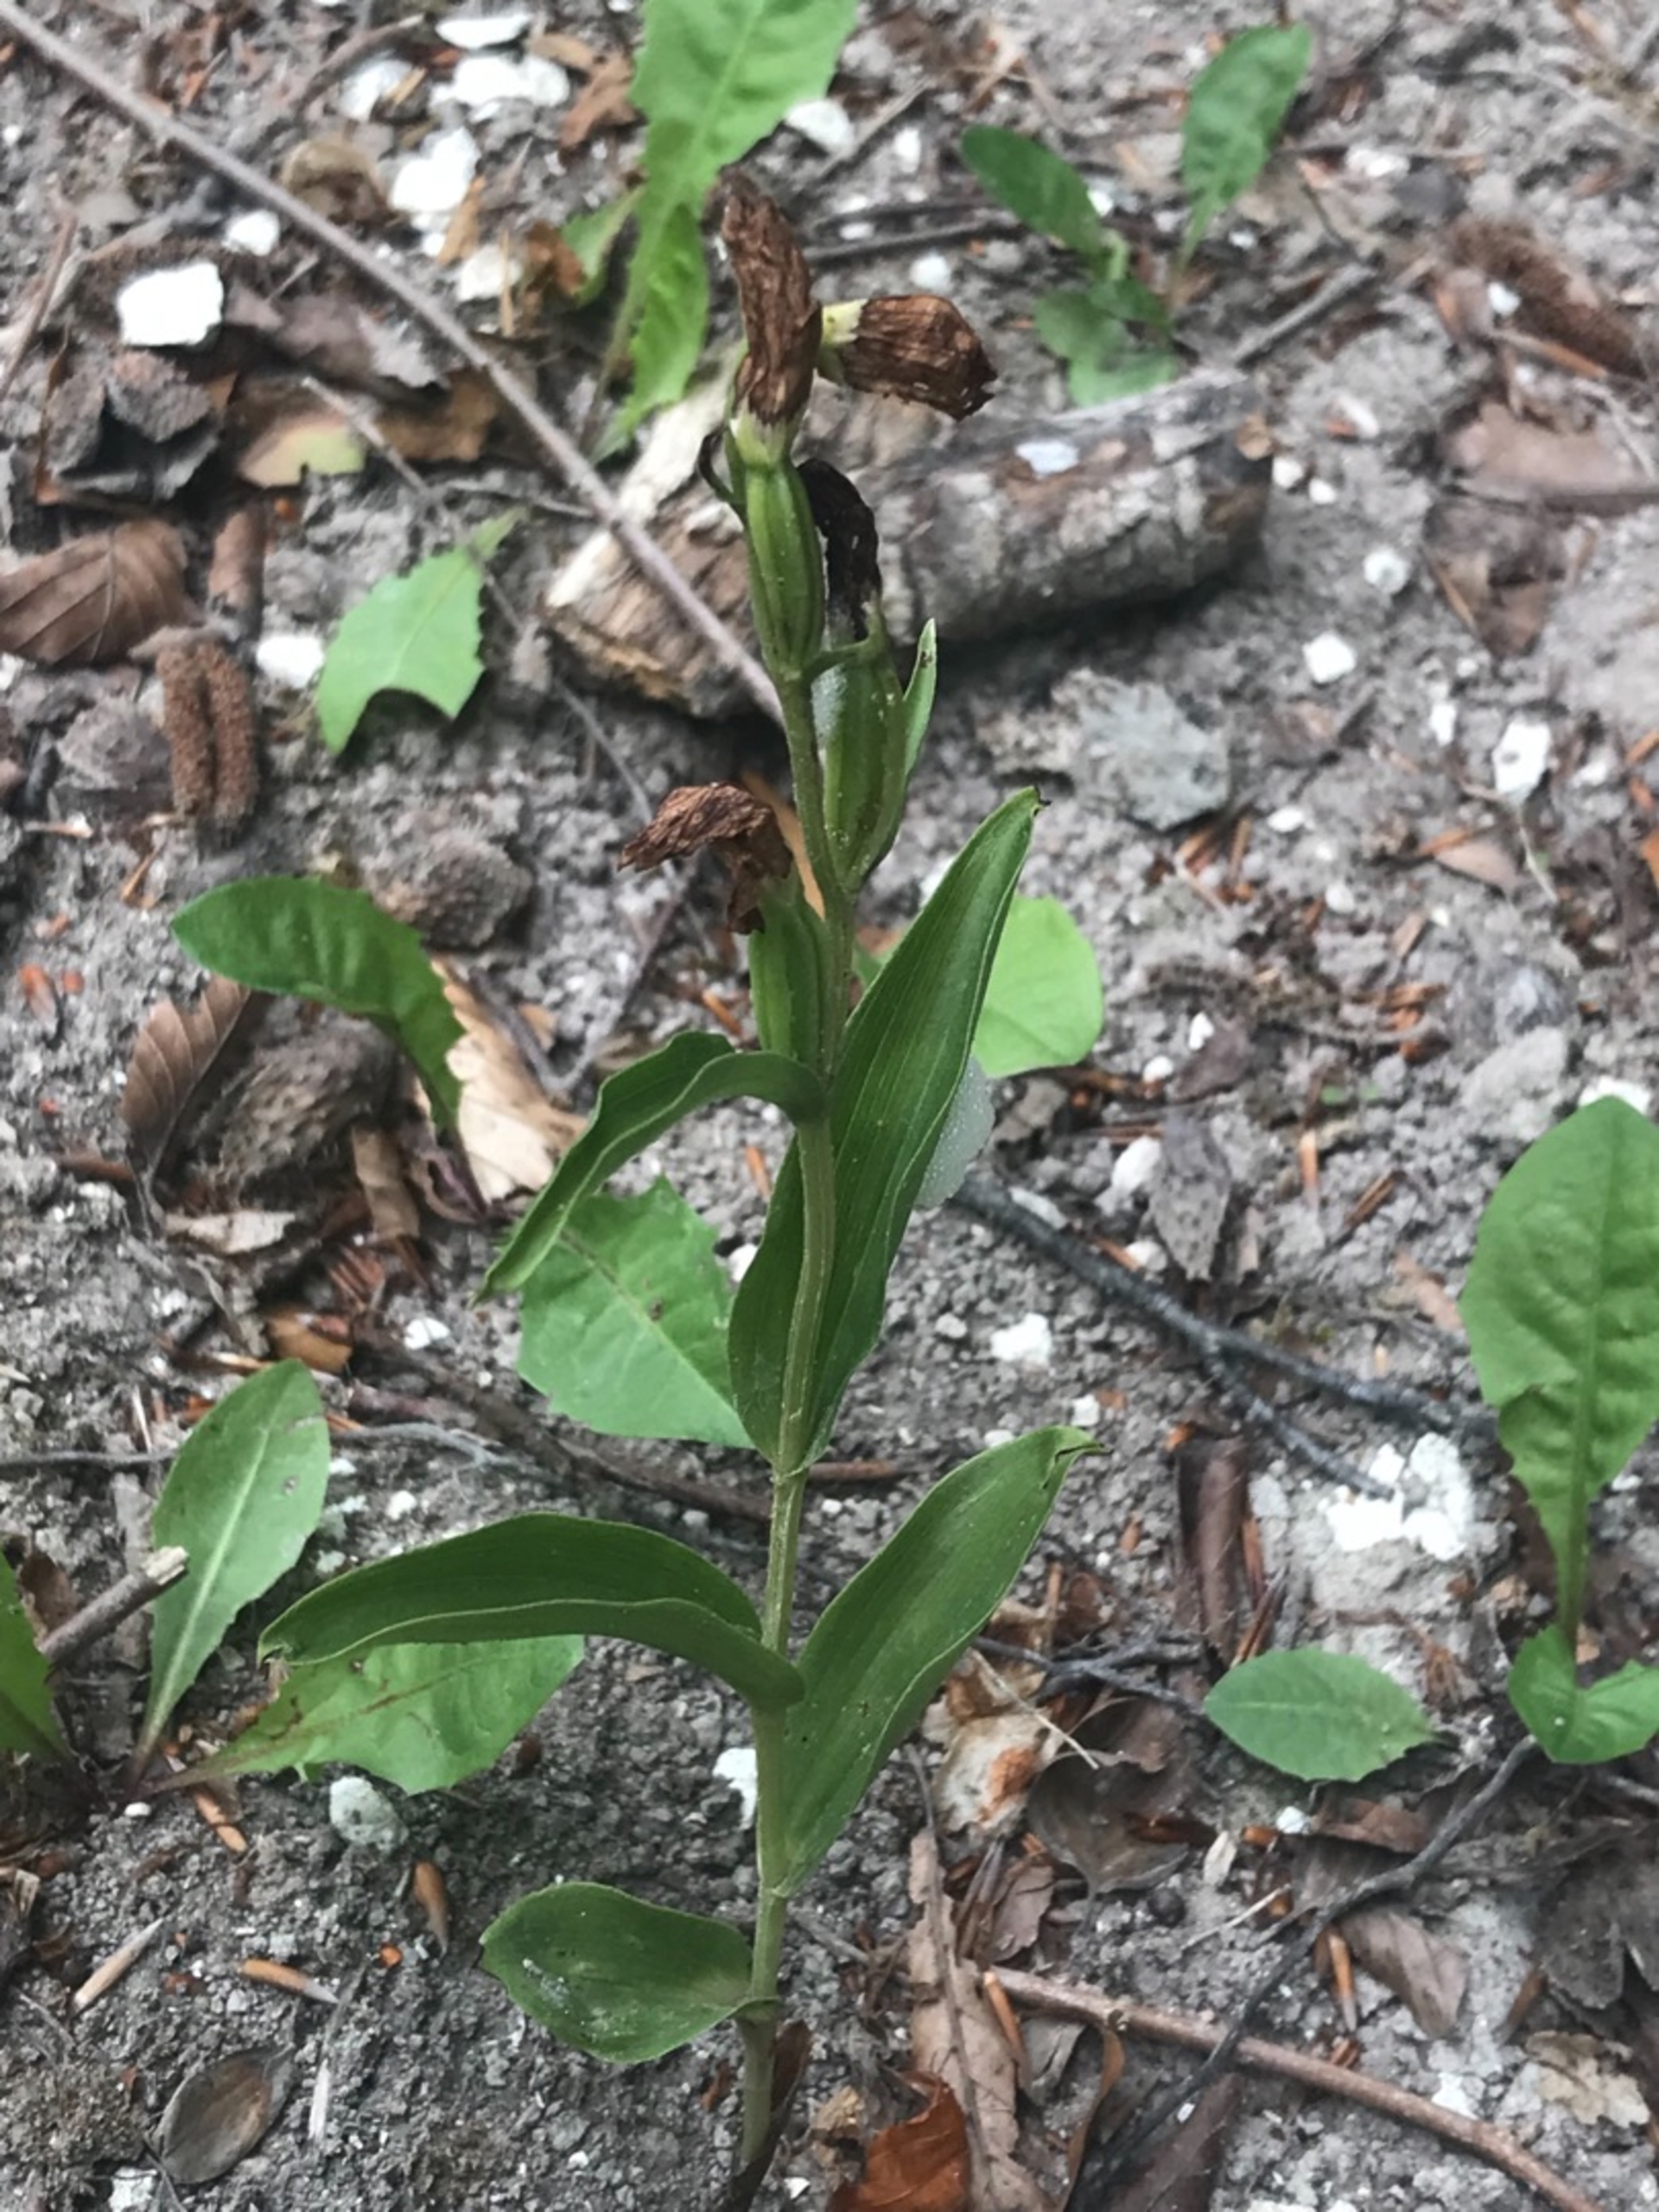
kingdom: Plantae
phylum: Tracheophyta
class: Liliopsida
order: Asparagales
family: Orchidaceae
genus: Cephalanthera
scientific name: Cephalanthera damasonium
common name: Hvidgul skovlilje
